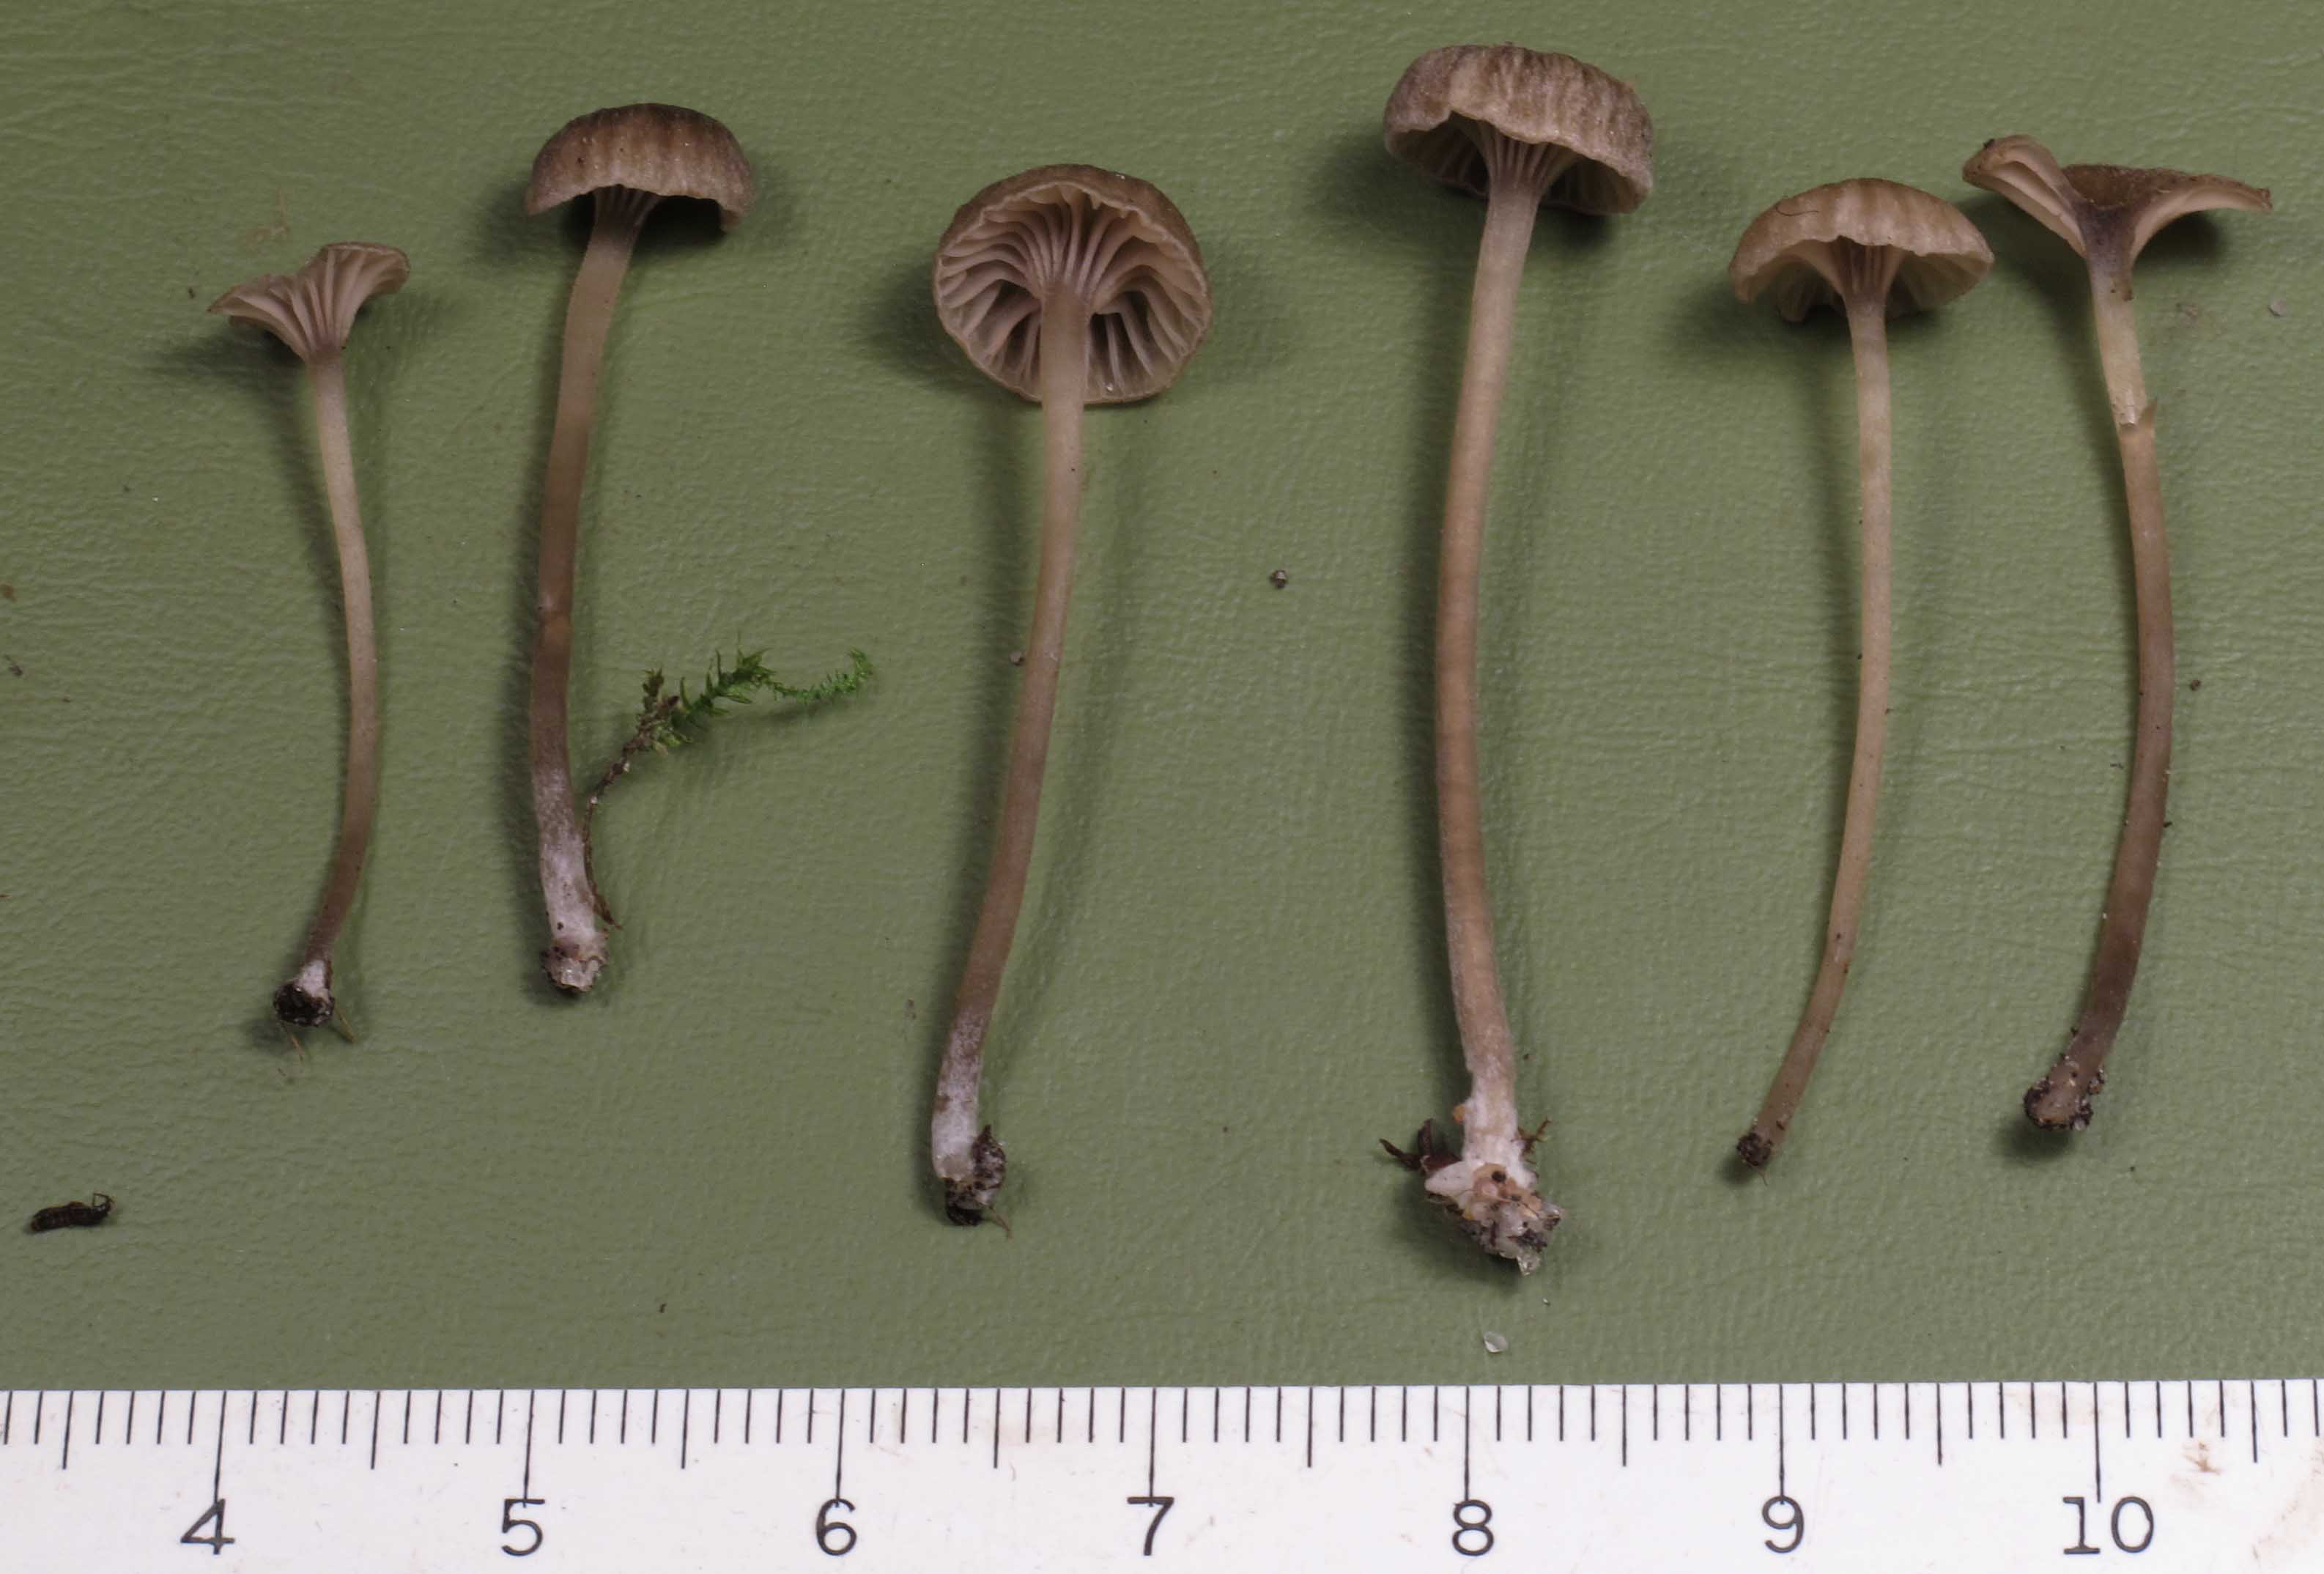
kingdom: Fungi
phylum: Basidiomycota
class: Agaricomycetes
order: Agaricales
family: Entolomataceae
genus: Entoloma
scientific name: Entoloma rhodocylix
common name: fjernbladet rødblad
